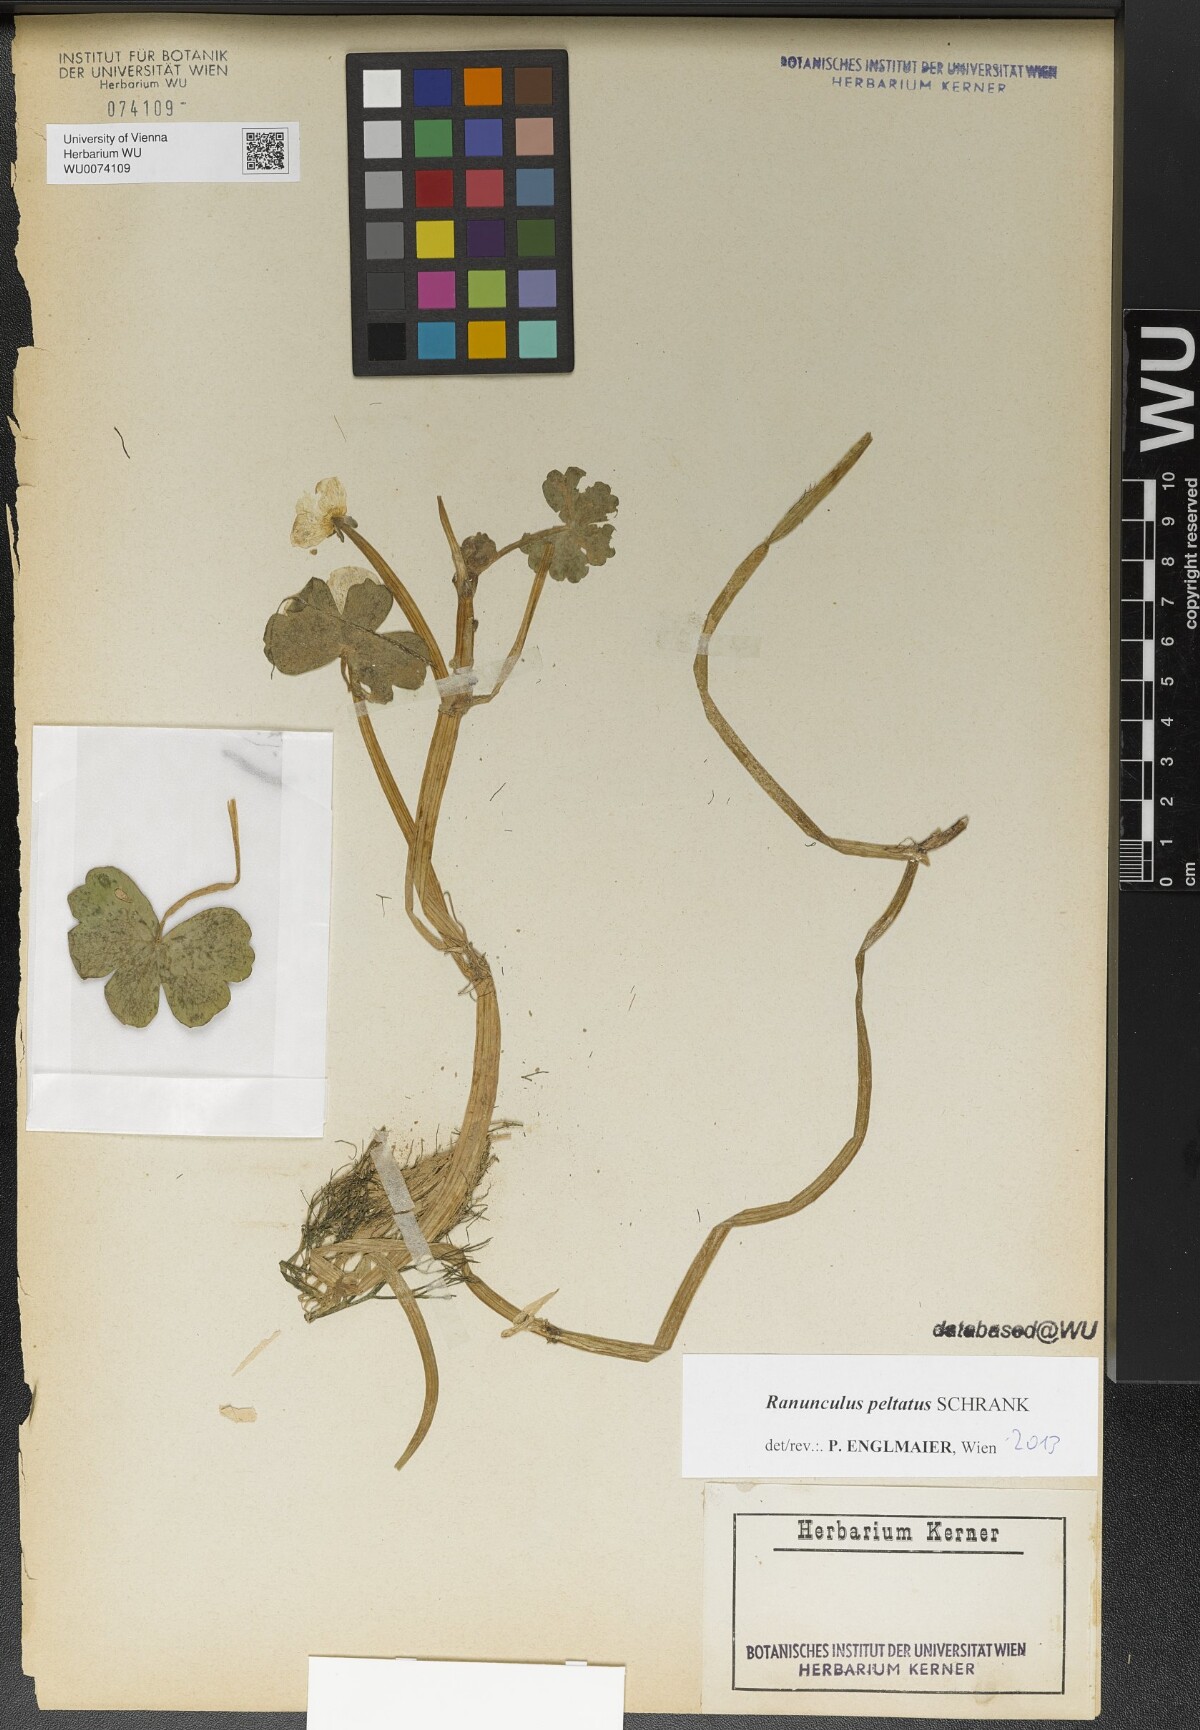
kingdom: Plantae
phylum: Tracheophyta
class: Magnoliopsida
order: Ranunculales
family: Ranunculaceae
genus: Ranunculus
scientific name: Ranunculus peltatus
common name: Pond water-crowfoot
